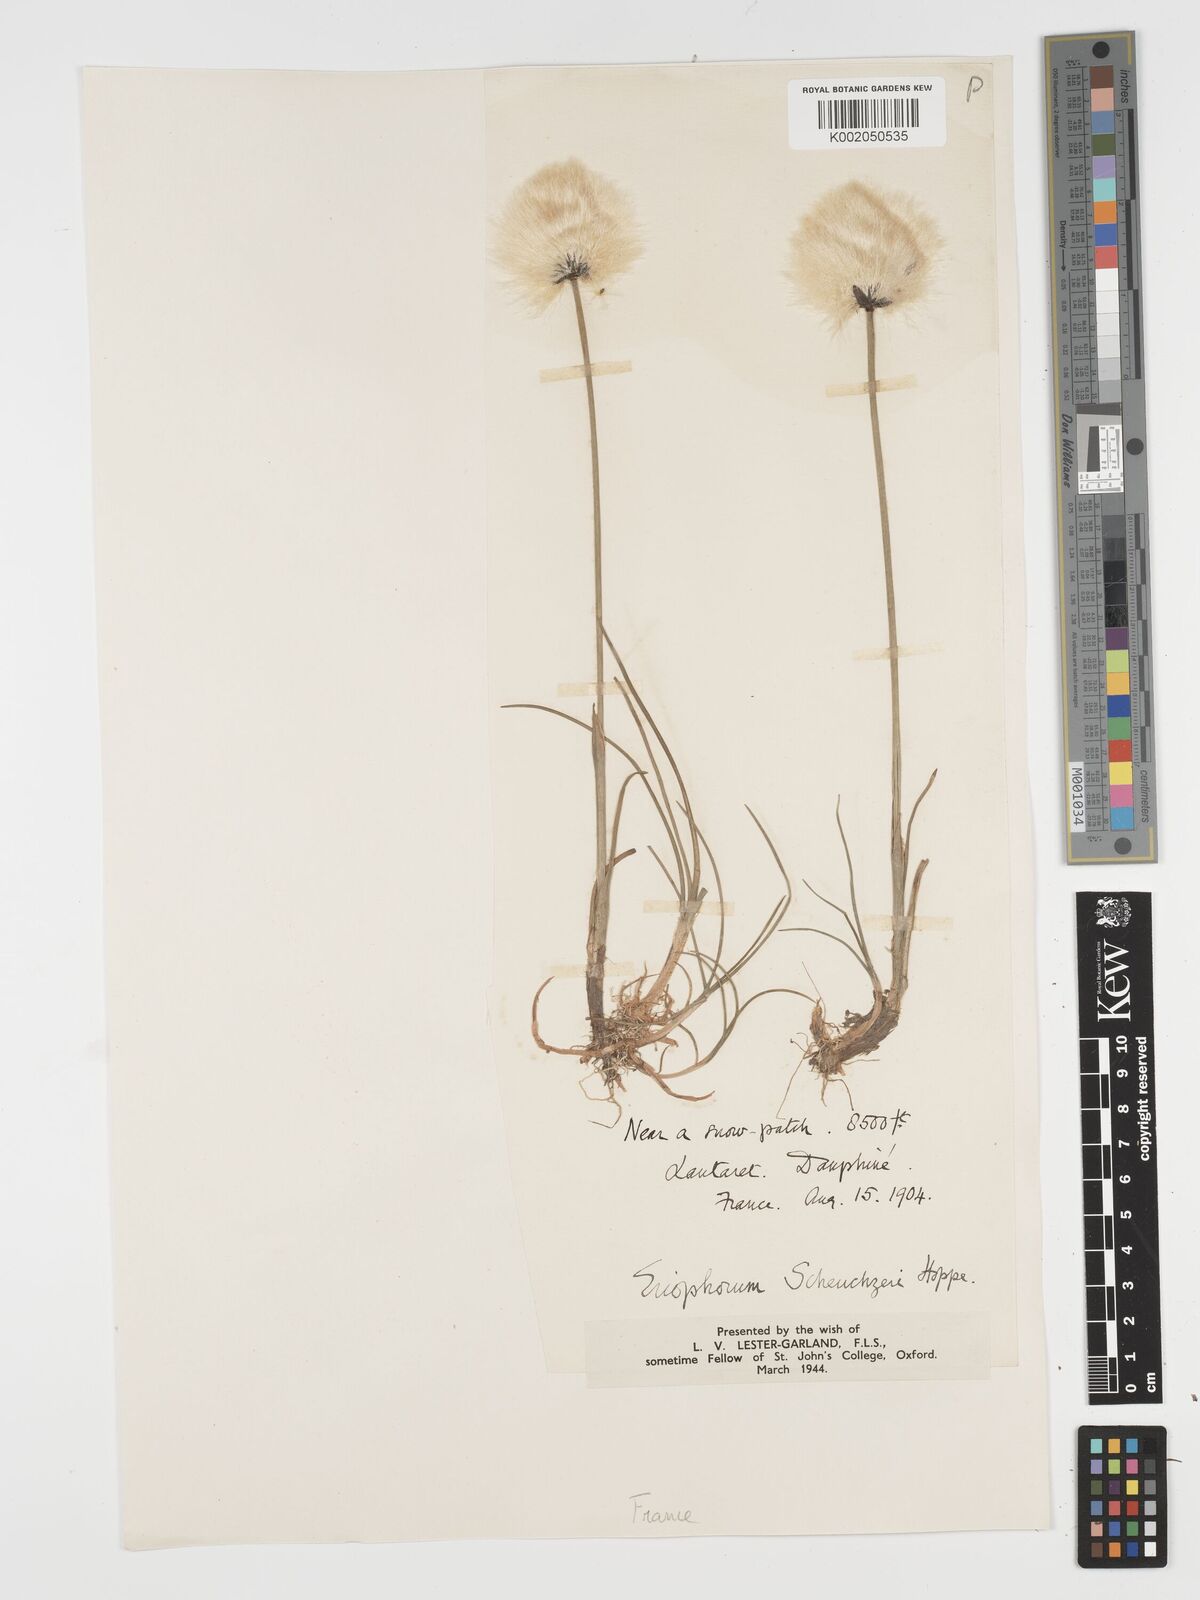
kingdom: Plantae
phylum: Tracheophyta
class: Liliopsida
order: Poales
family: Cyperaceae
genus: Eriophorum
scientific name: Eriophorum scheuchzeri
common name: Scheuchzer's cottongrass
